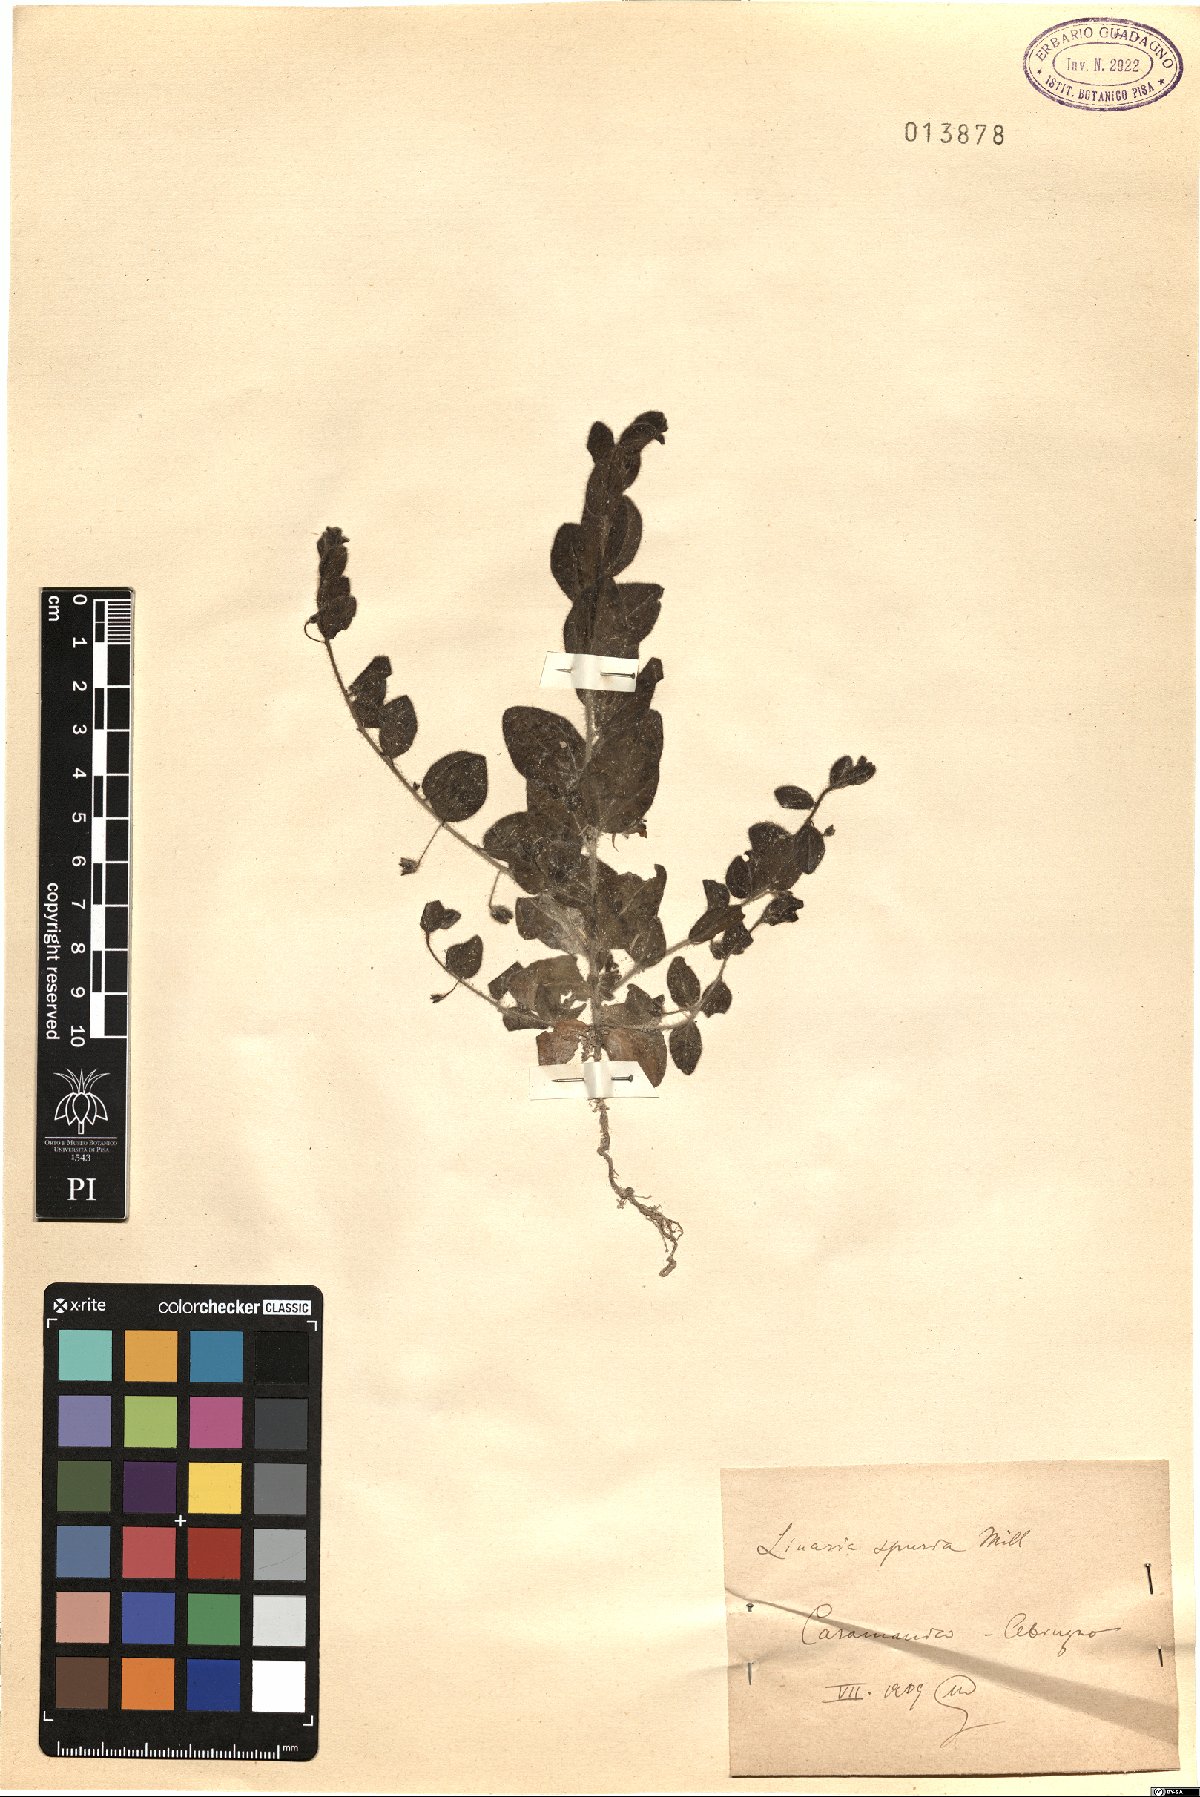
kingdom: Plantae
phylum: Tracheophyta
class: Magnoliopsida
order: Lamiales
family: Plantaginaceae
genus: Kickxia
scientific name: Kickxia spuria
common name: Round-leaved fluellen
